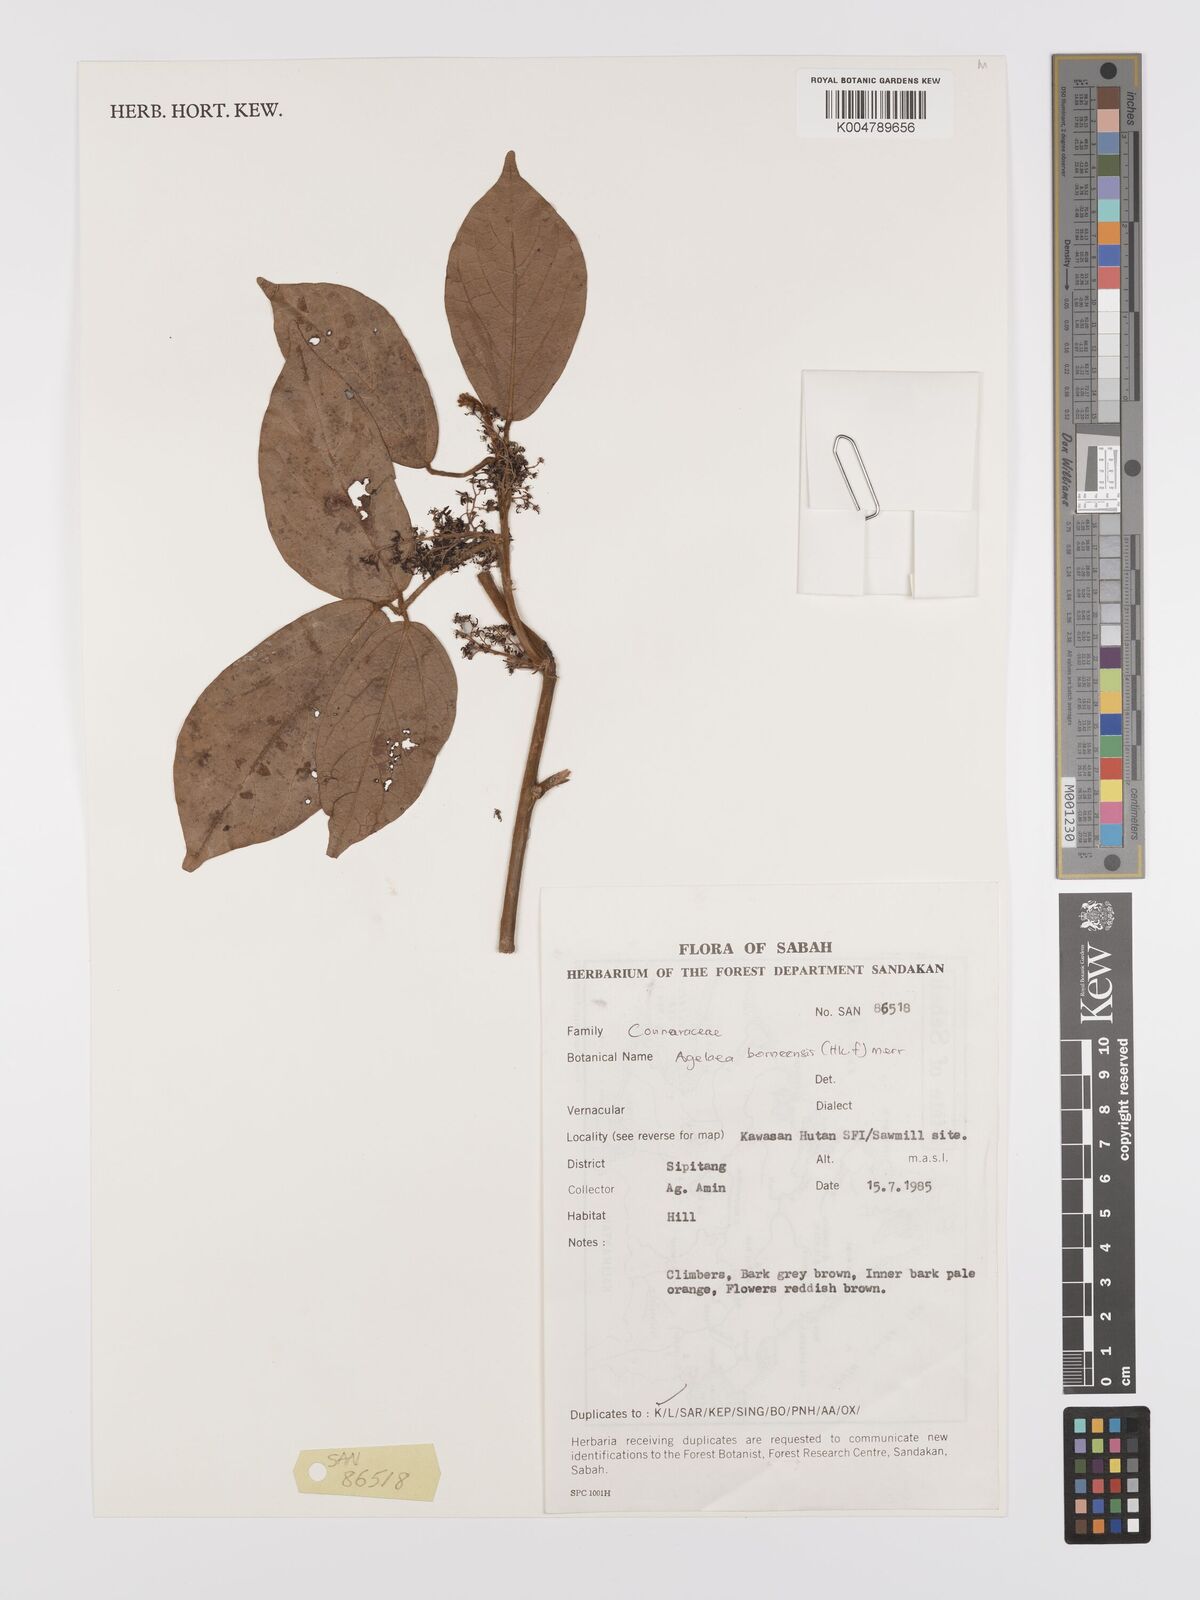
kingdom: Plantae
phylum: Tracheophyta
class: Magnoliopsida
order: Oxalidales
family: Connaraceae
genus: Agelaea
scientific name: Agelaea borneensis
